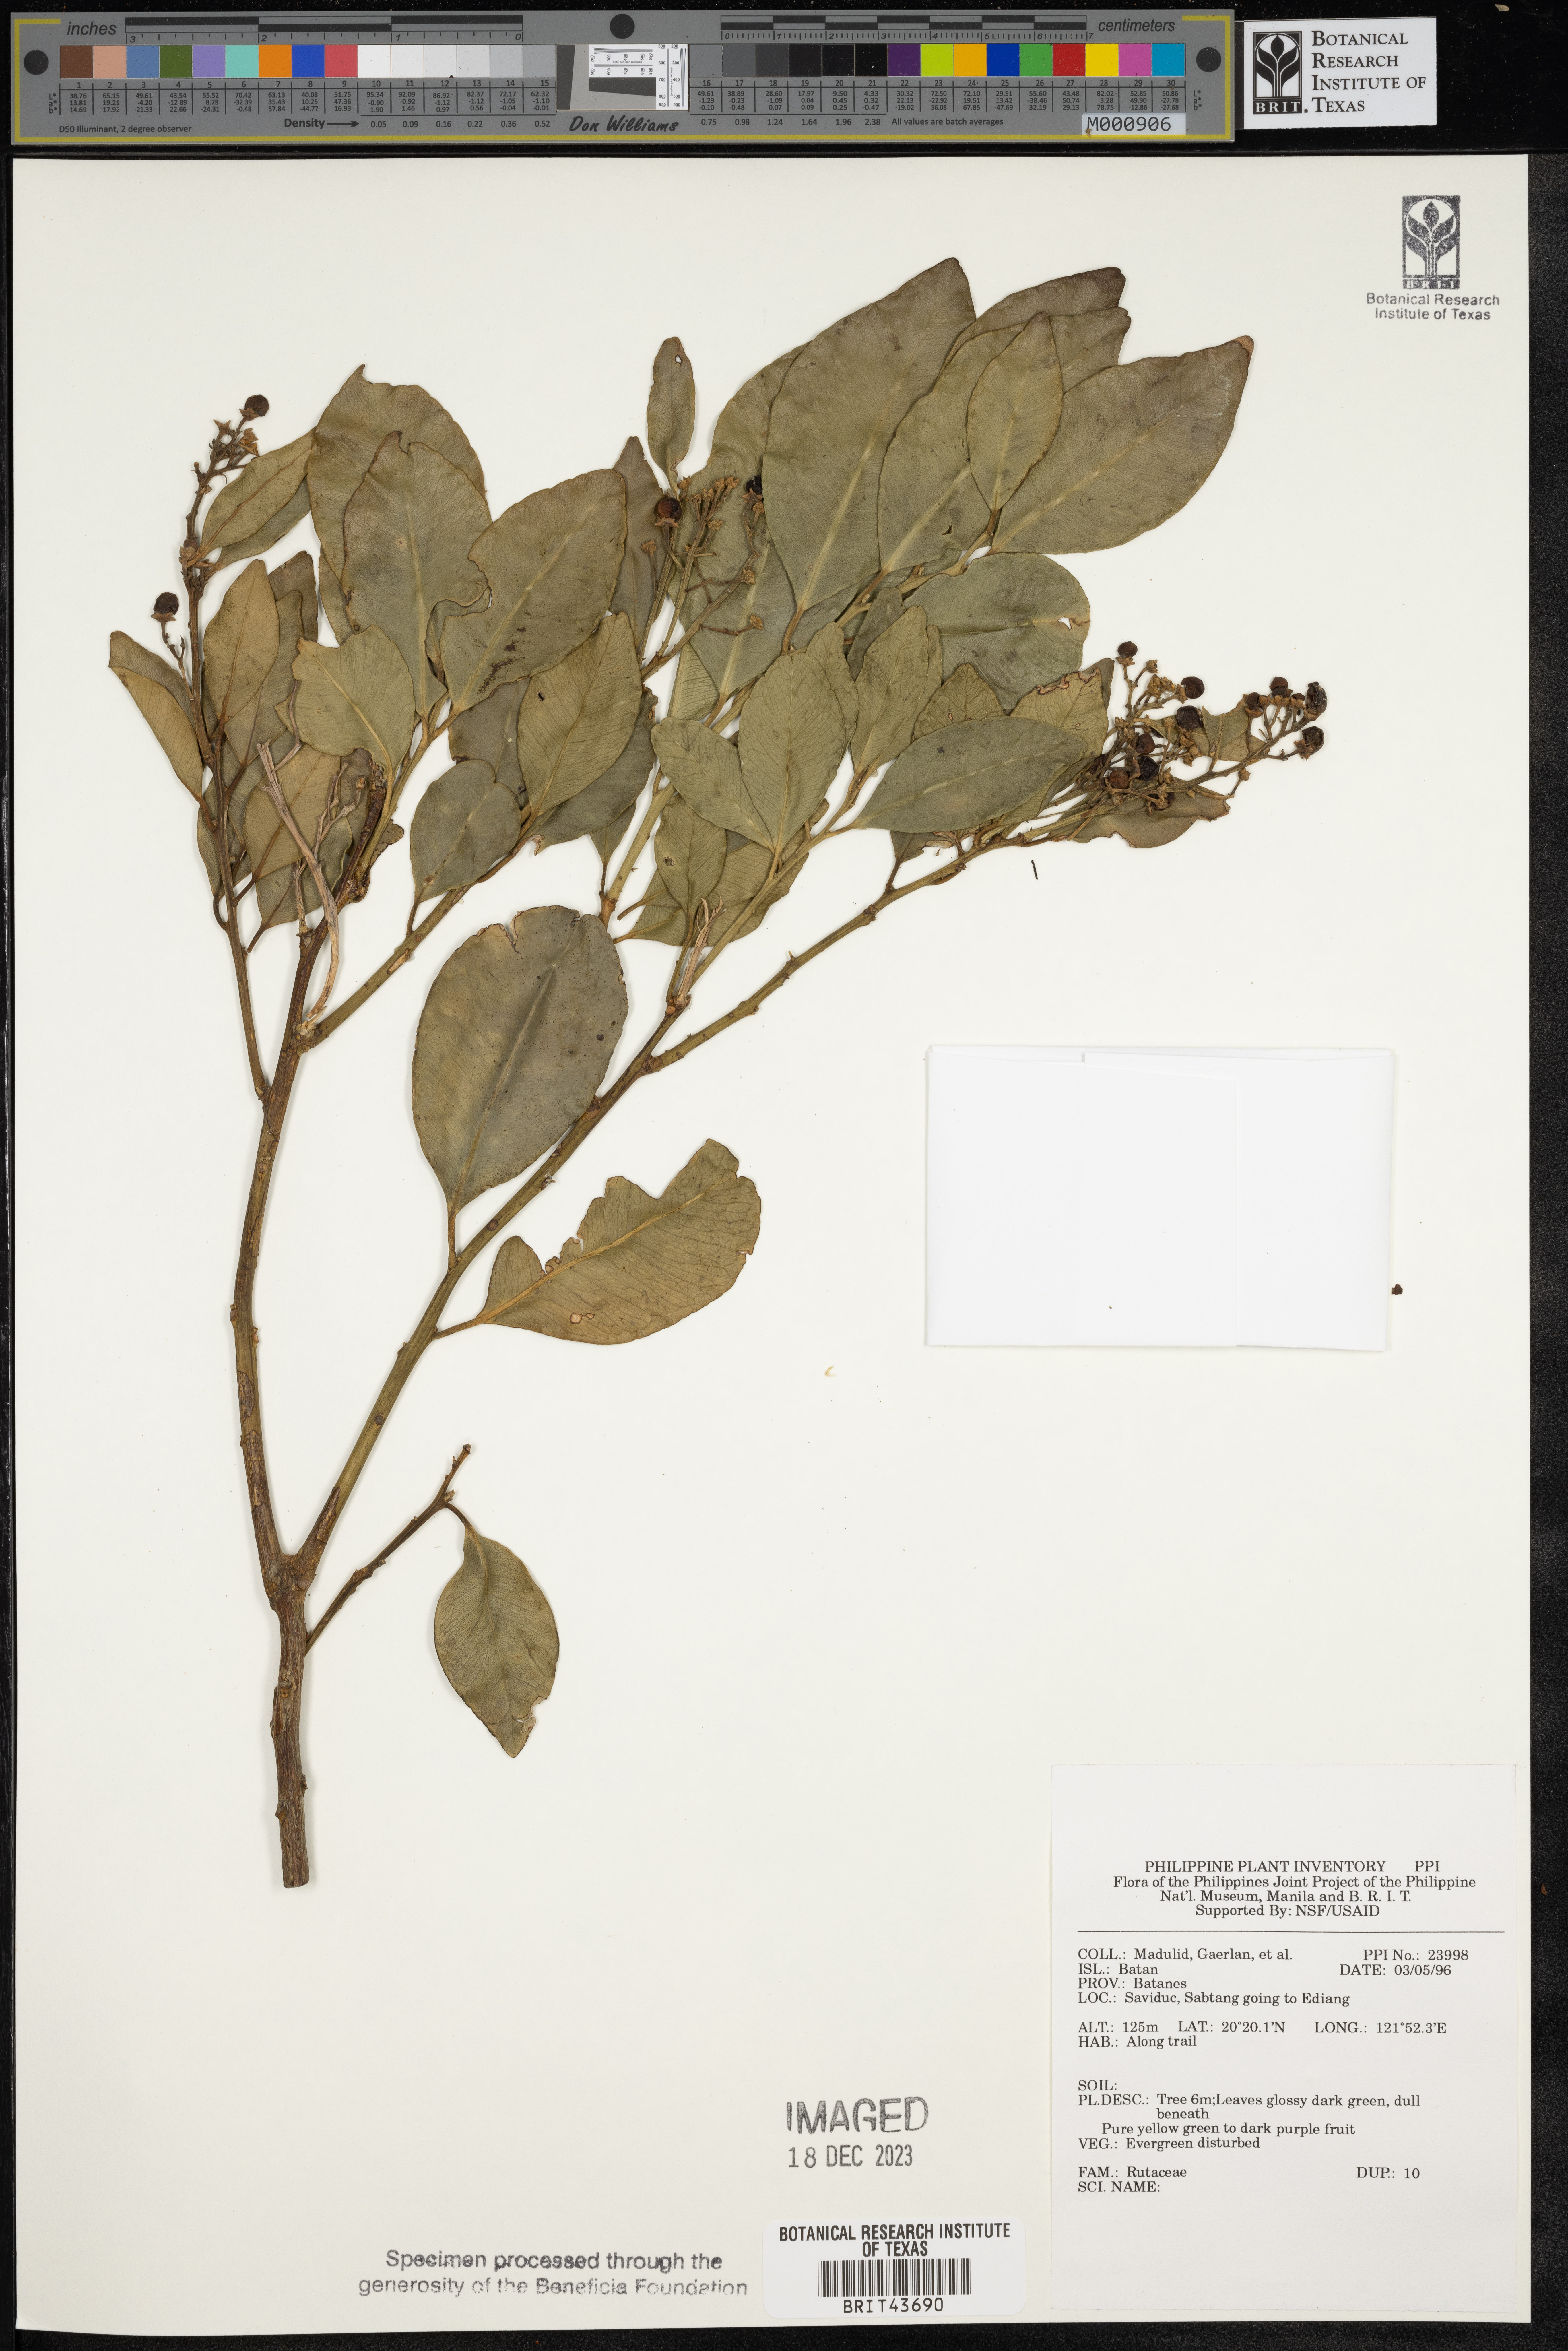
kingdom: Plantae
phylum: Tracheophyta
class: Magnoliopsida
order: Sapindales
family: Rutaceae
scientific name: Rutaceae
